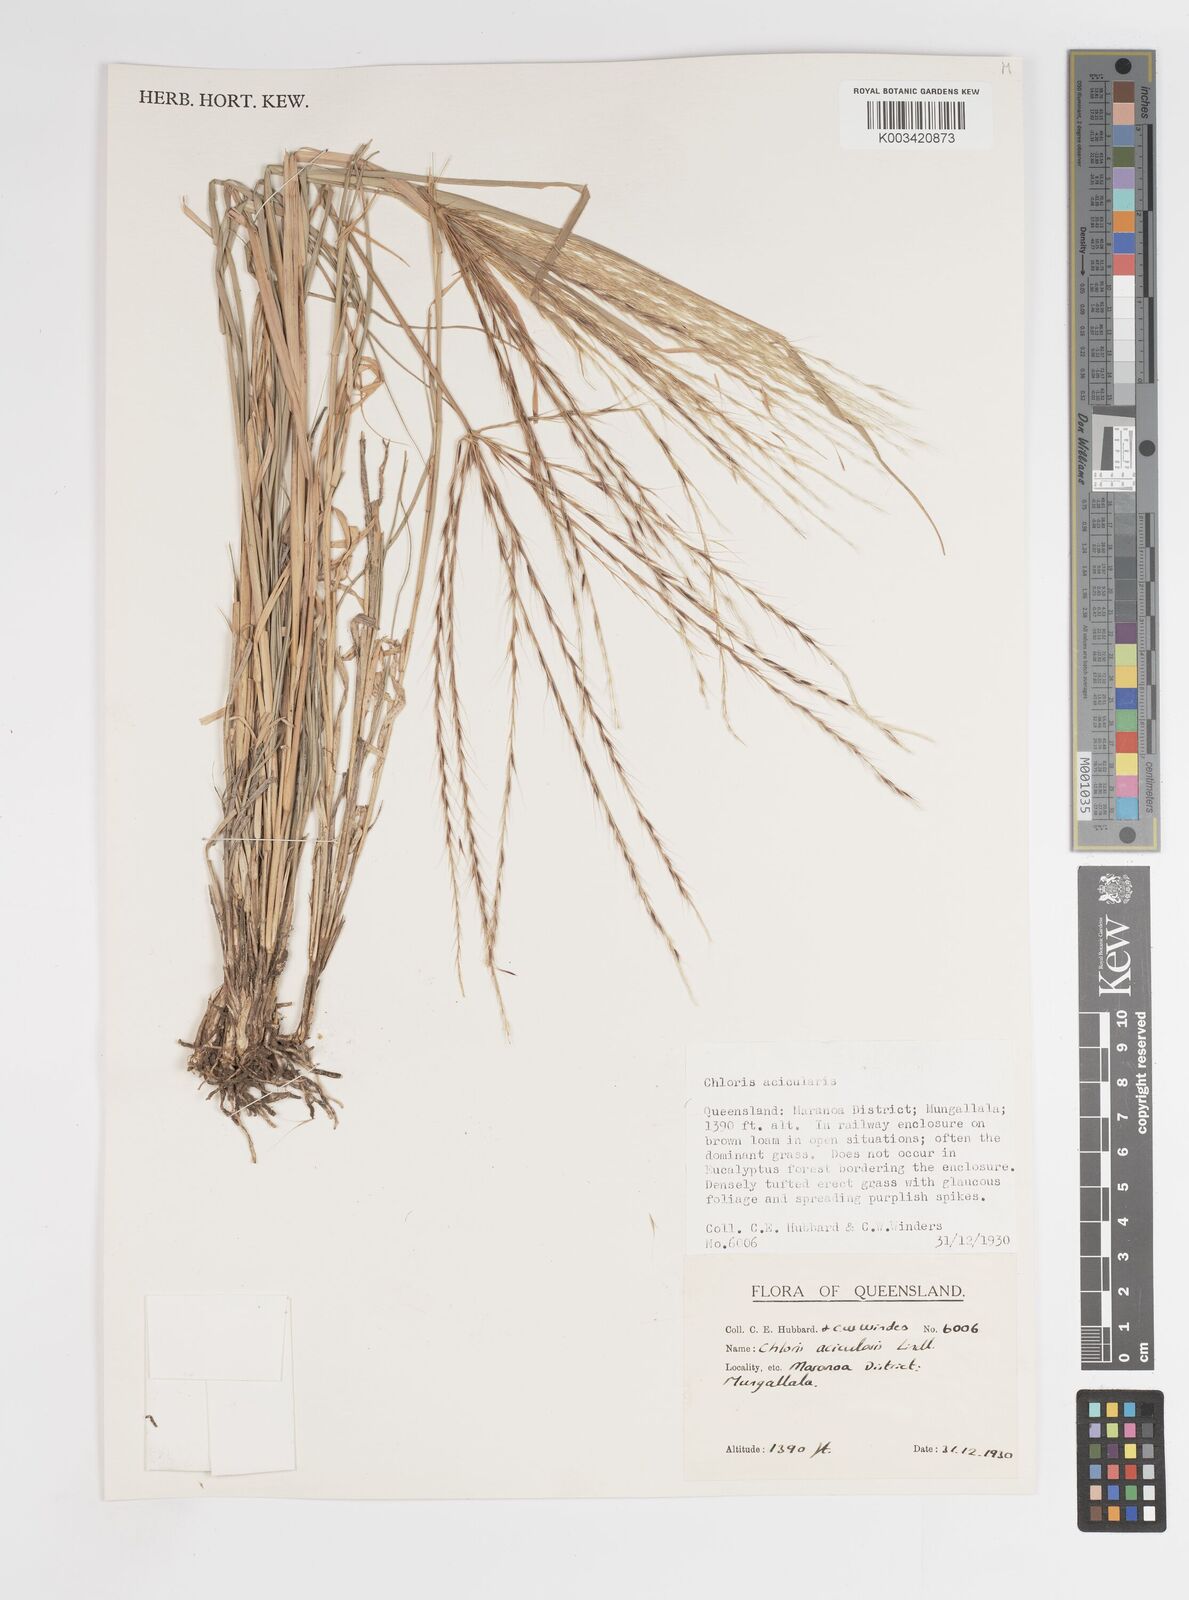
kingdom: Plantae
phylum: Tracheophyta
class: Liliopsida
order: Poales
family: Poaceae
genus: Enteropogon
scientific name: Enteropogon acicularis
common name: Curly windmill grass
